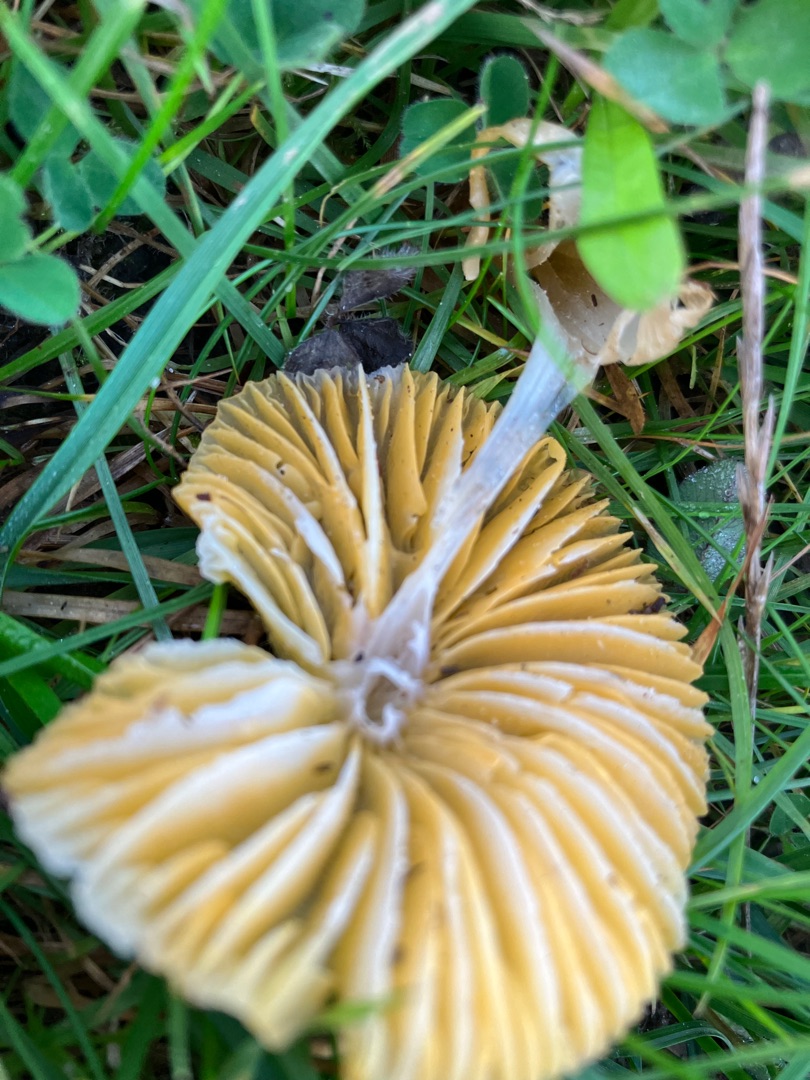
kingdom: Fungi
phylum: Basidiomycota
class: Agaricomycetes
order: Agaricales
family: Hygrophoraceae
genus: Gliophorus
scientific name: Gliophorus psittacinus
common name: Papegøje-vokshat
